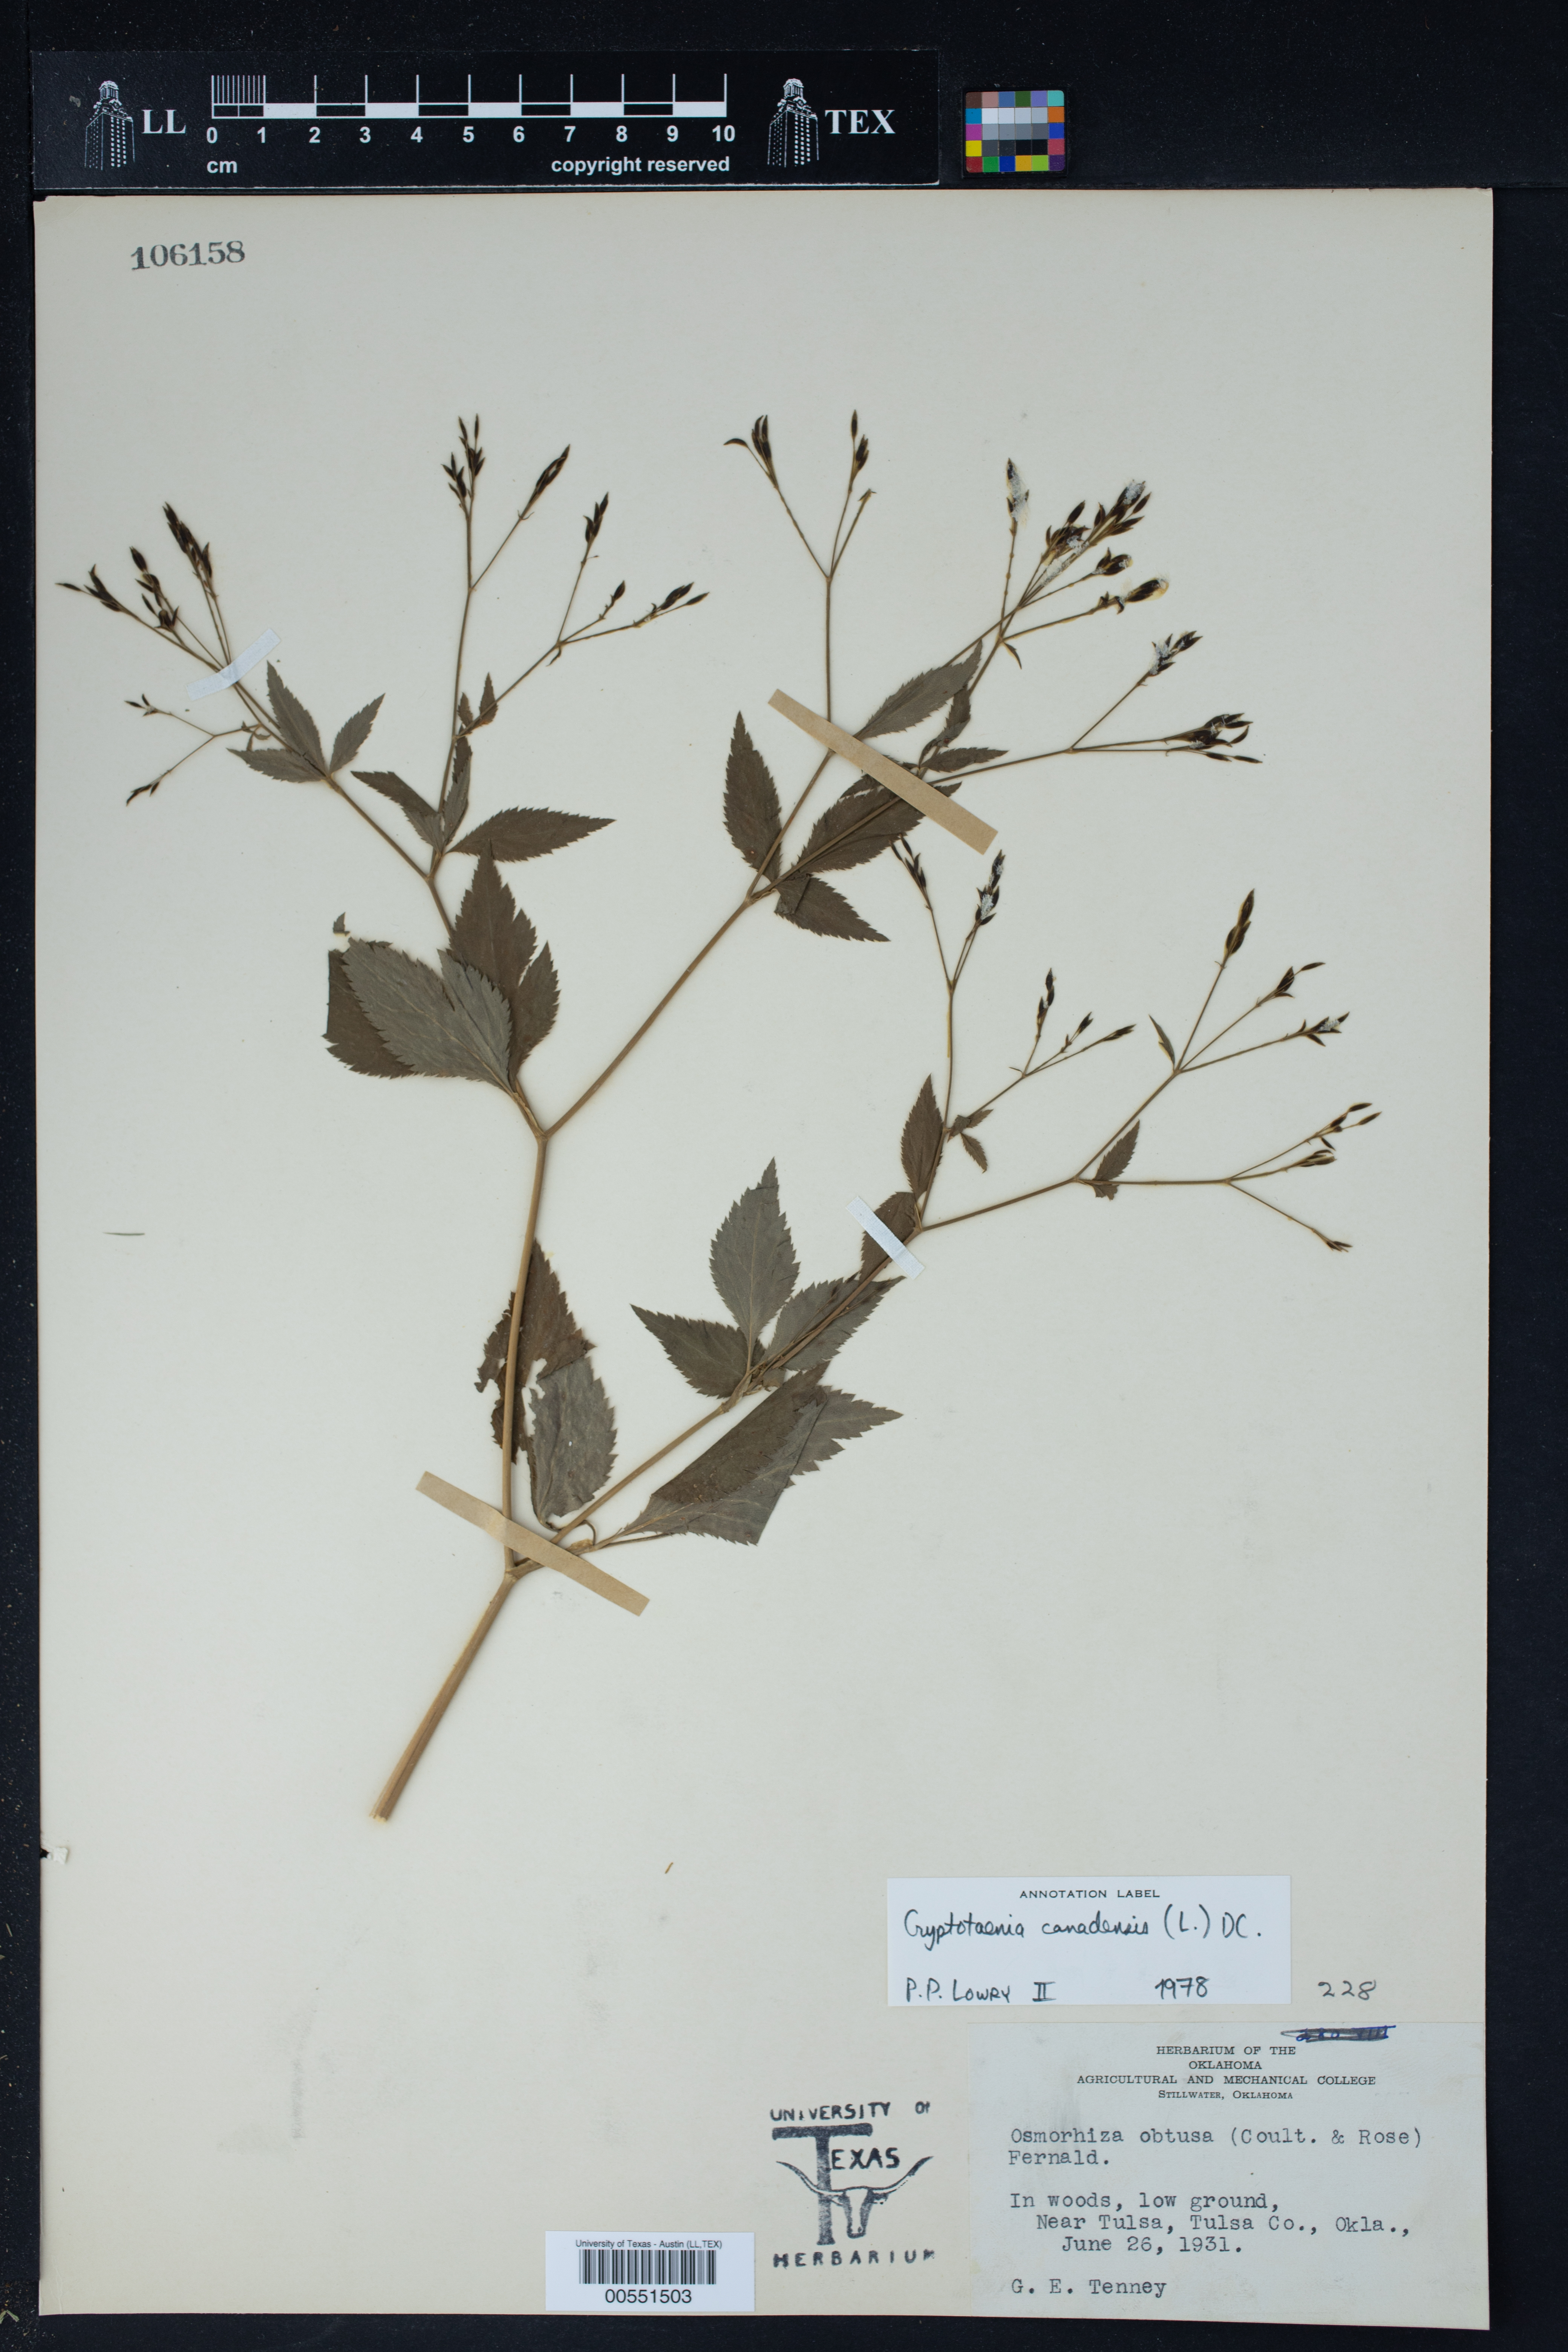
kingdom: Plantae
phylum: Tracheophyta
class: Magnoliopsida
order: Apiales
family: Apiaceae
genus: Cryptotaenia
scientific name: Cryptotaenia canadensis
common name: Honewort
